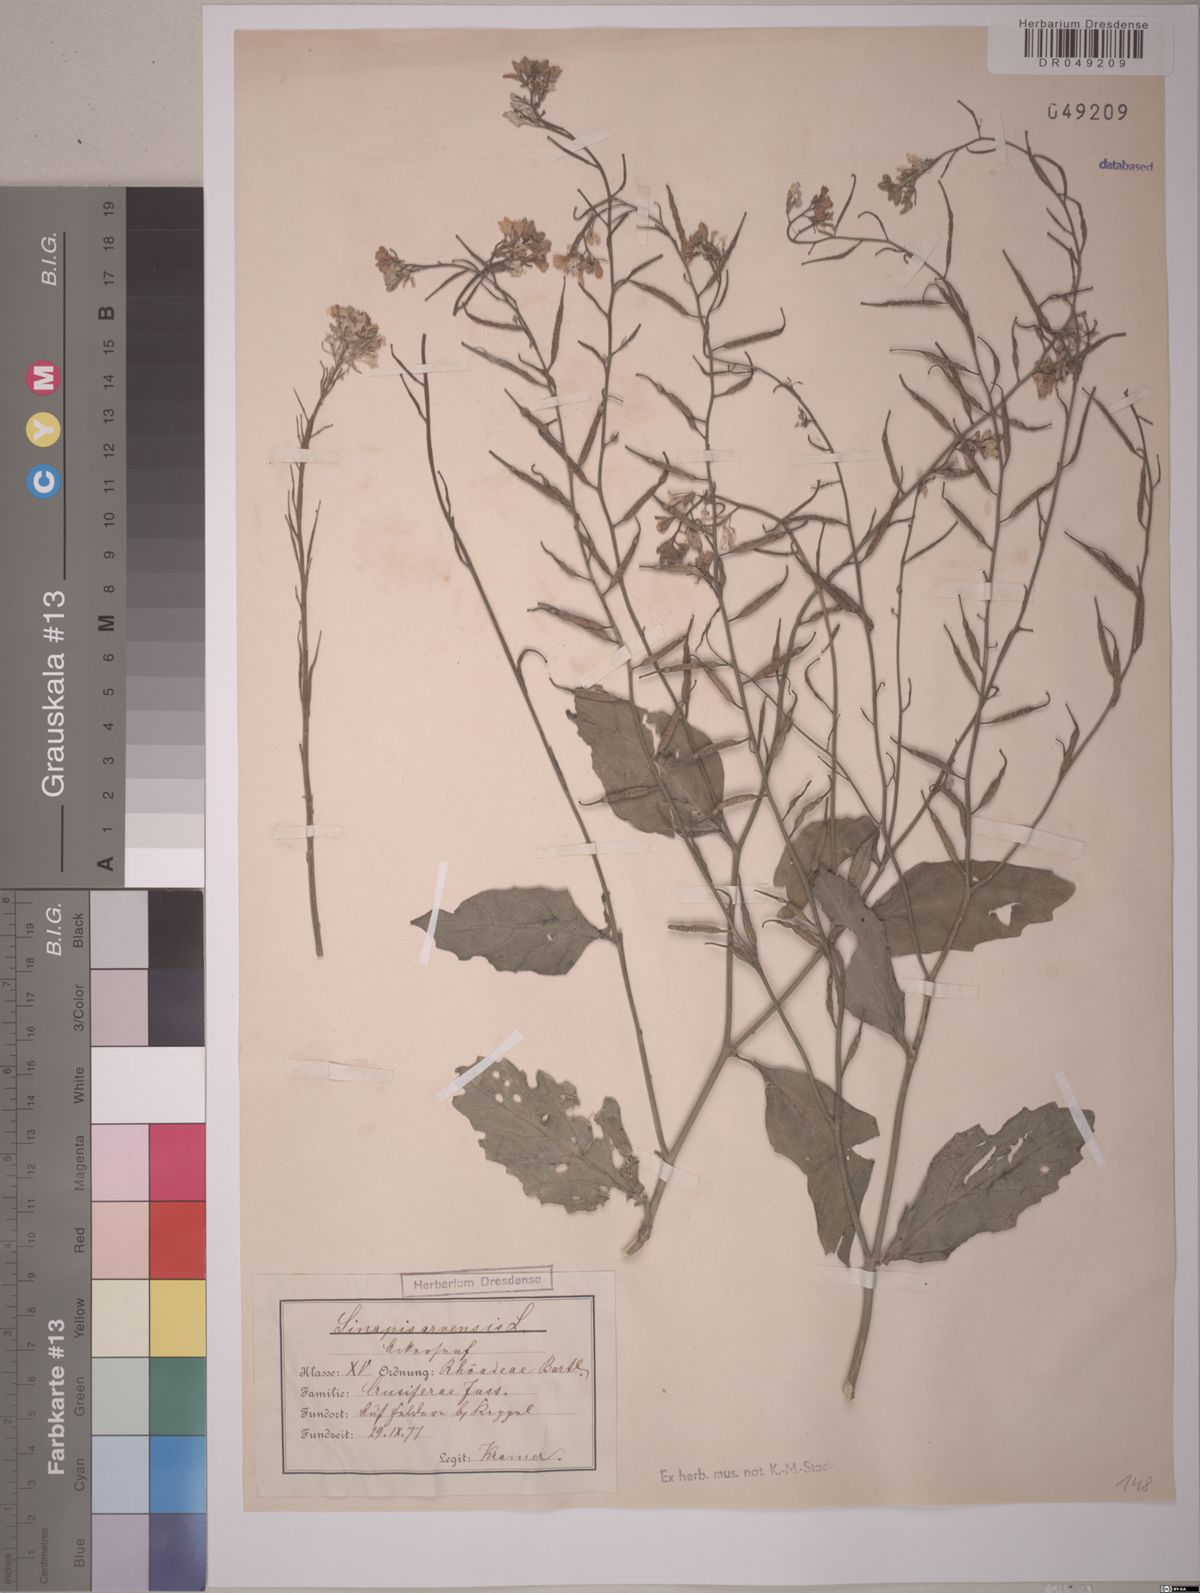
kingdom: Plantae
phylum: Tracheophyta
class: Magnoliopsida
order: Brassicales
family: Brassicaceae
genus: Sinapis
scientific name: Sinapis arvensis
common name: Charlock
